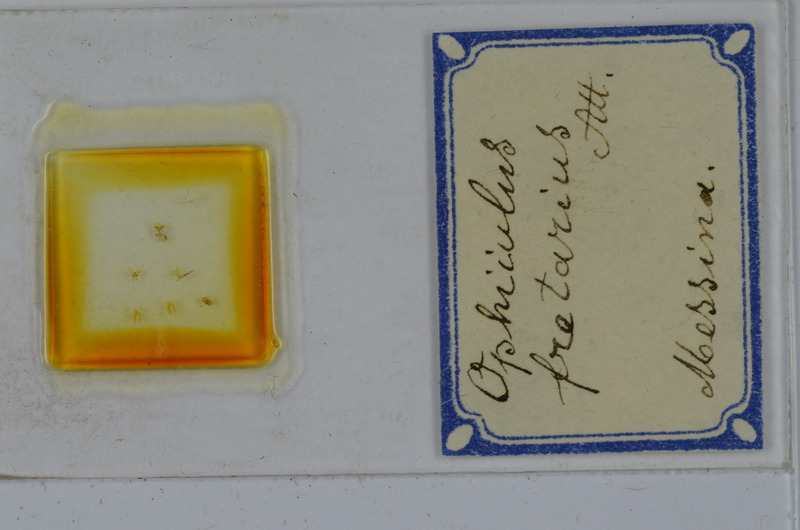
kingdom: Animalia
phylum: Arthropoda
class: Diplopoda
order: Julida
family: Julidae
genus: Ophyiulus
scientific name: Ophyiulus targionii
